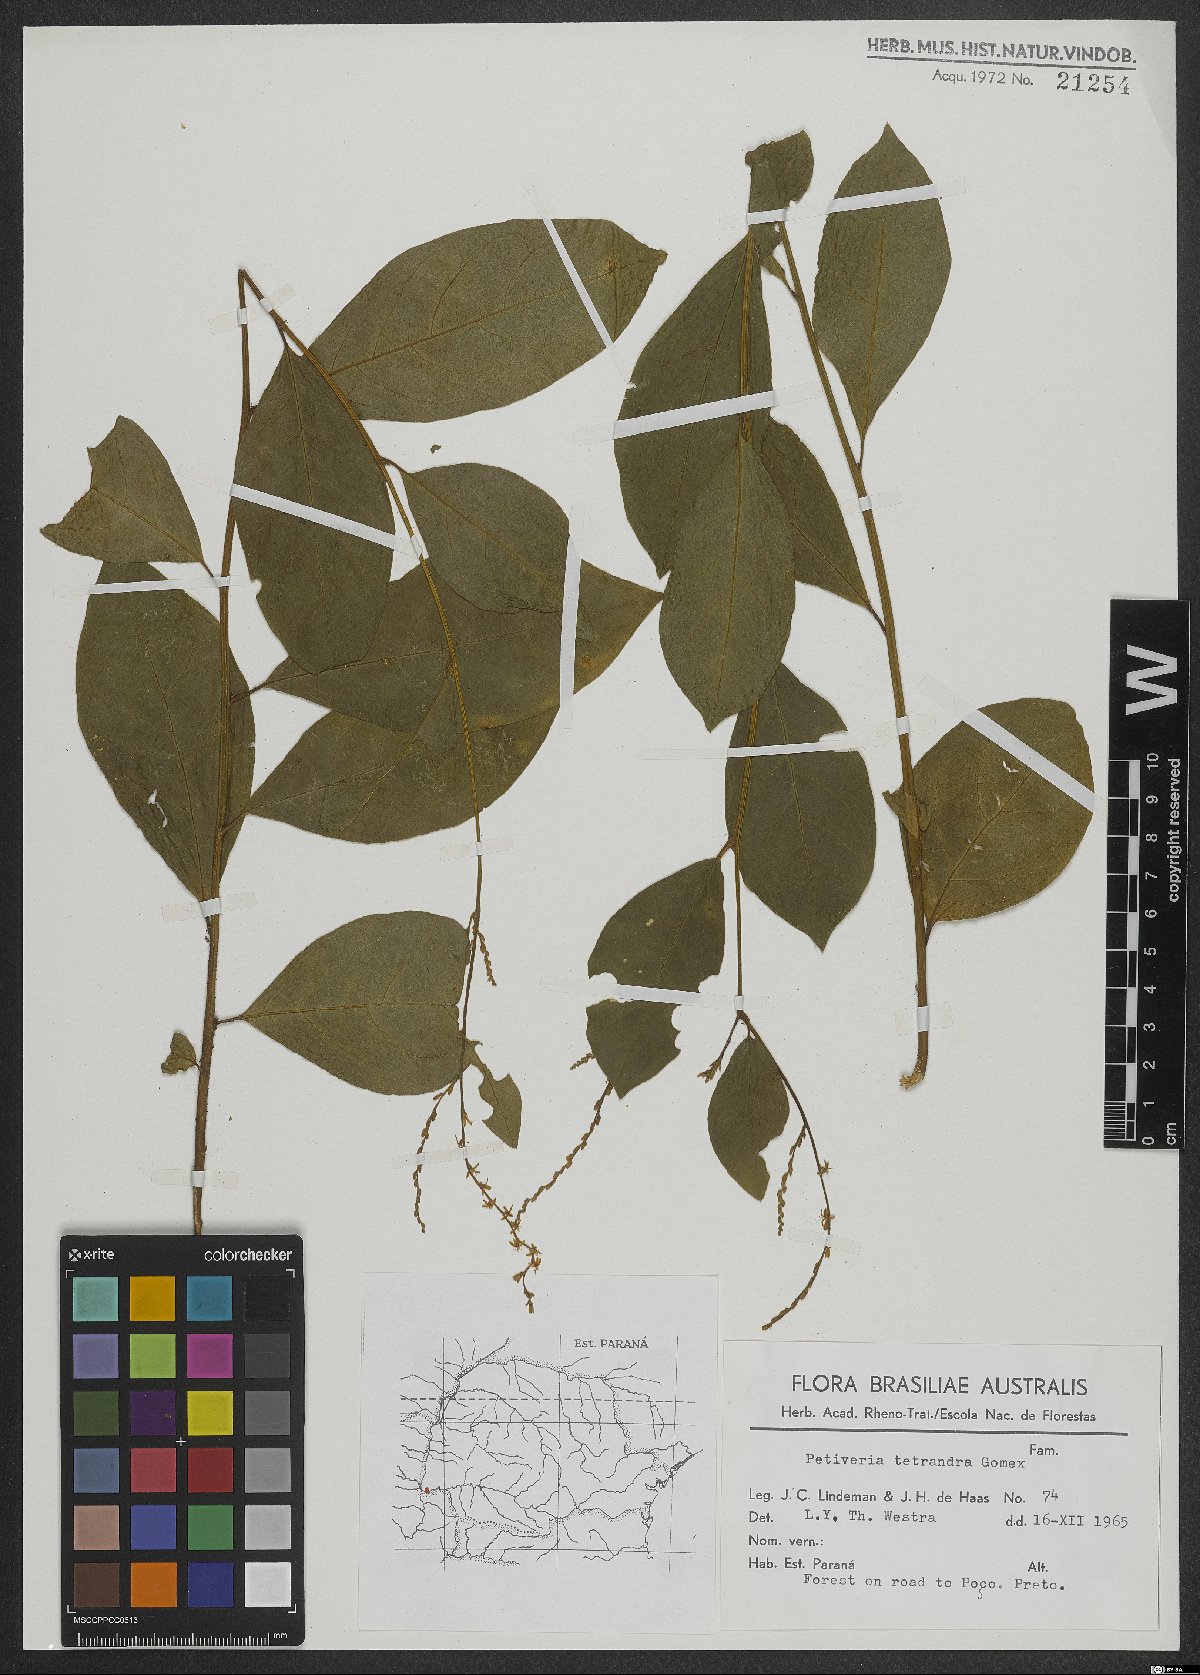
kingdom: Plantae
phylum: Tracheophyta
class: Magnoliopsida
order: Caryophyllales
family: Phytolaccaceae
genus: Petiveria
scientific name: Petiveria alliacea
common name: Garlicweed
